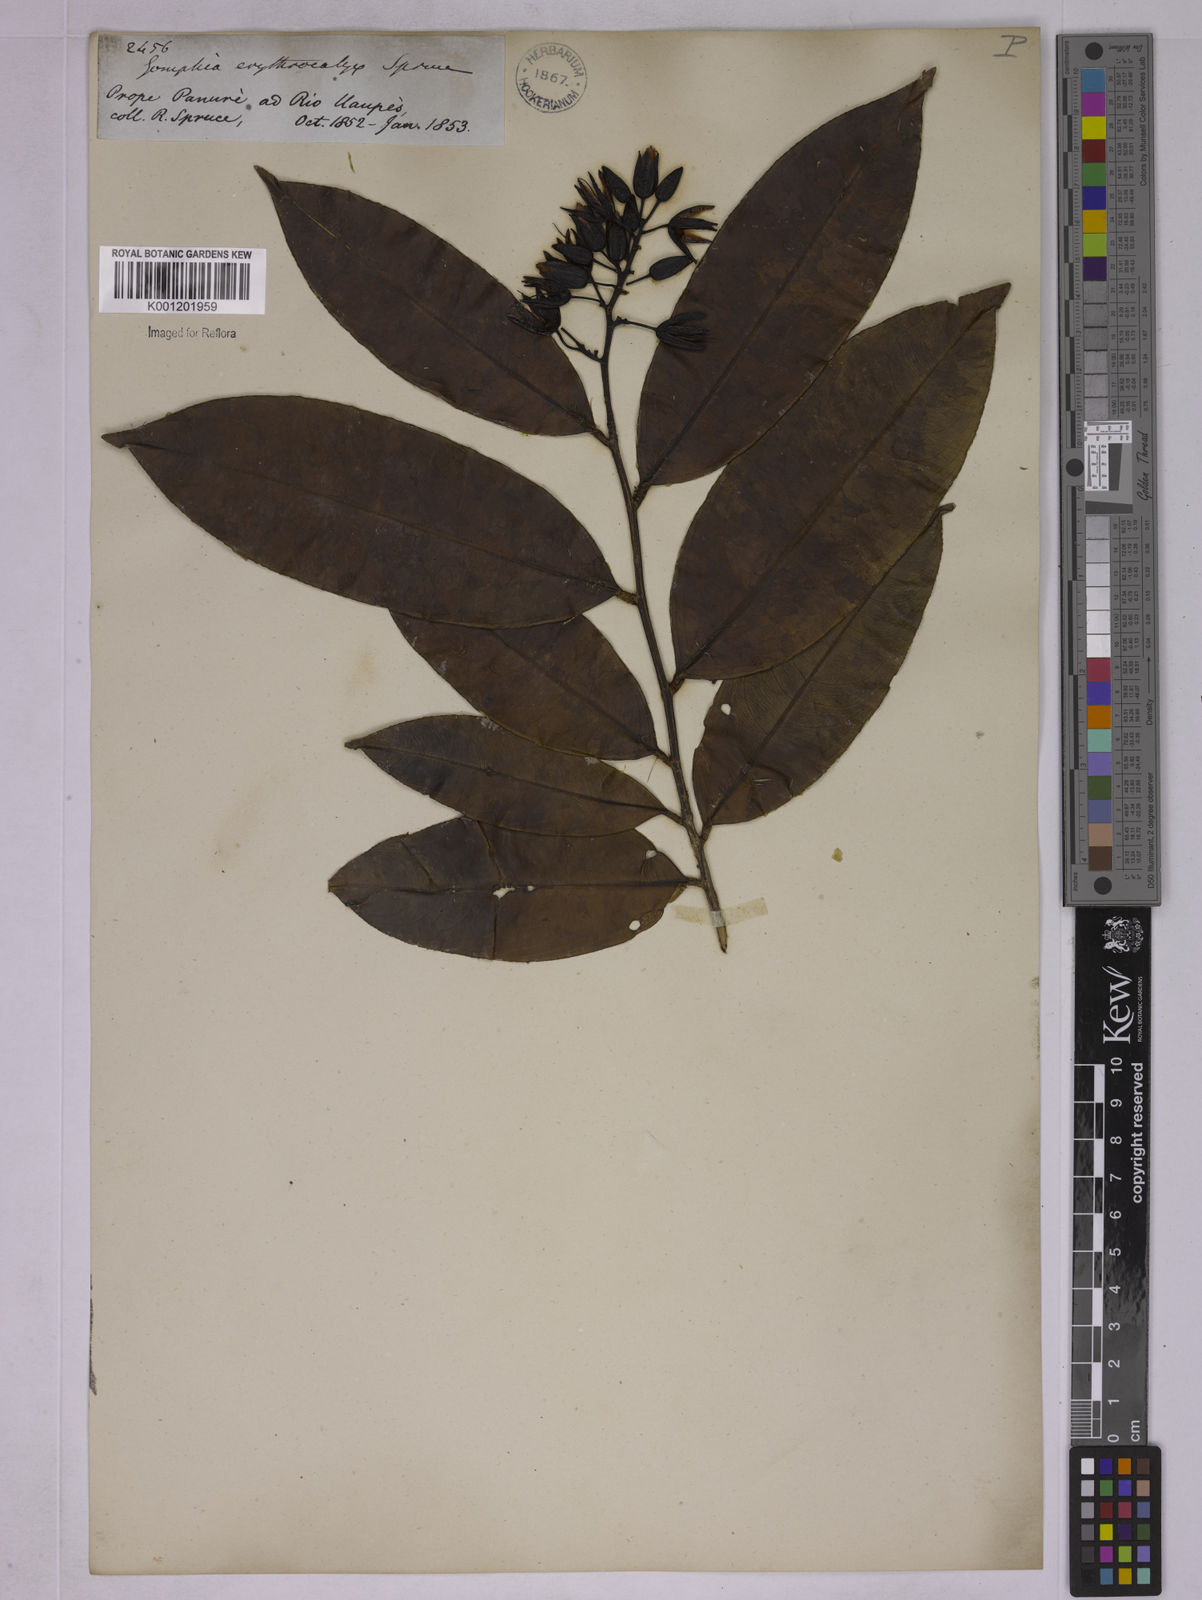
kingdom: Plantae
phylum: Tracheophyta
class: Magnoliopsida
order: Malpighiales
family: Ochnaceae
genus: Ouratea
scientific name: Ouratea inundata
